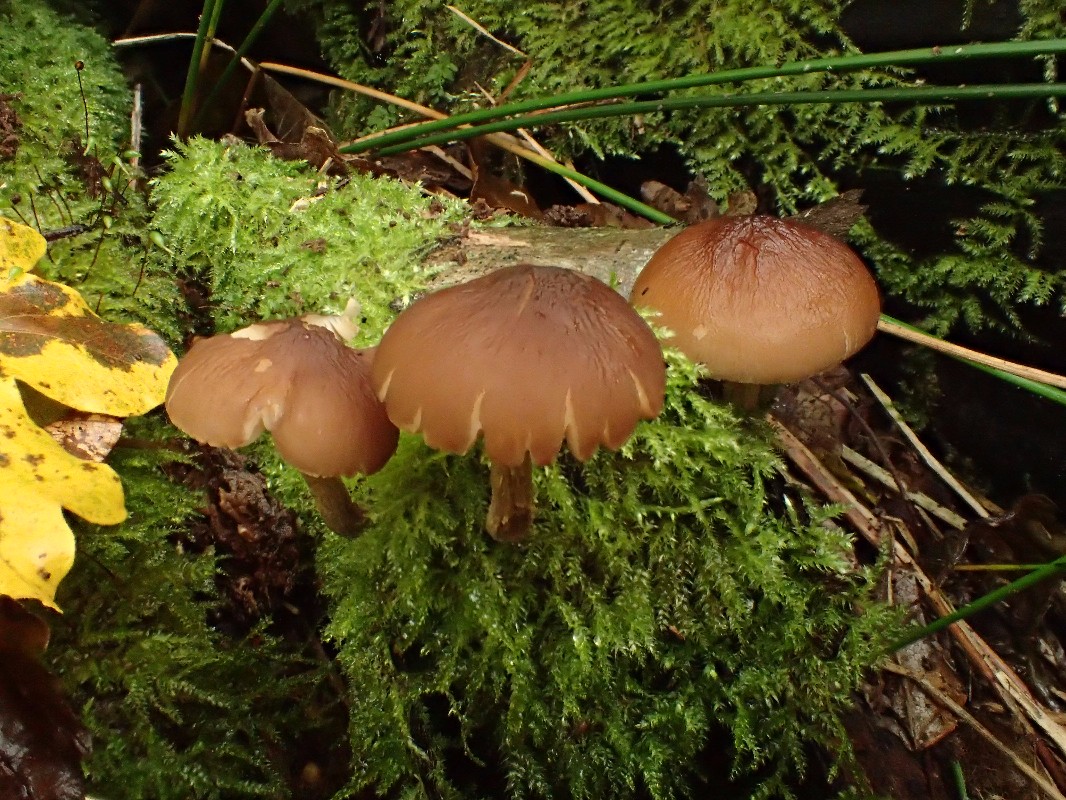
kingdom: Fungi
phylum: Basidiomycota
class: Agaricomycetes
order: Agaricales
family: Pluteaceae
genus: Pluteus
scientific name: Pluteus phlebophorus
